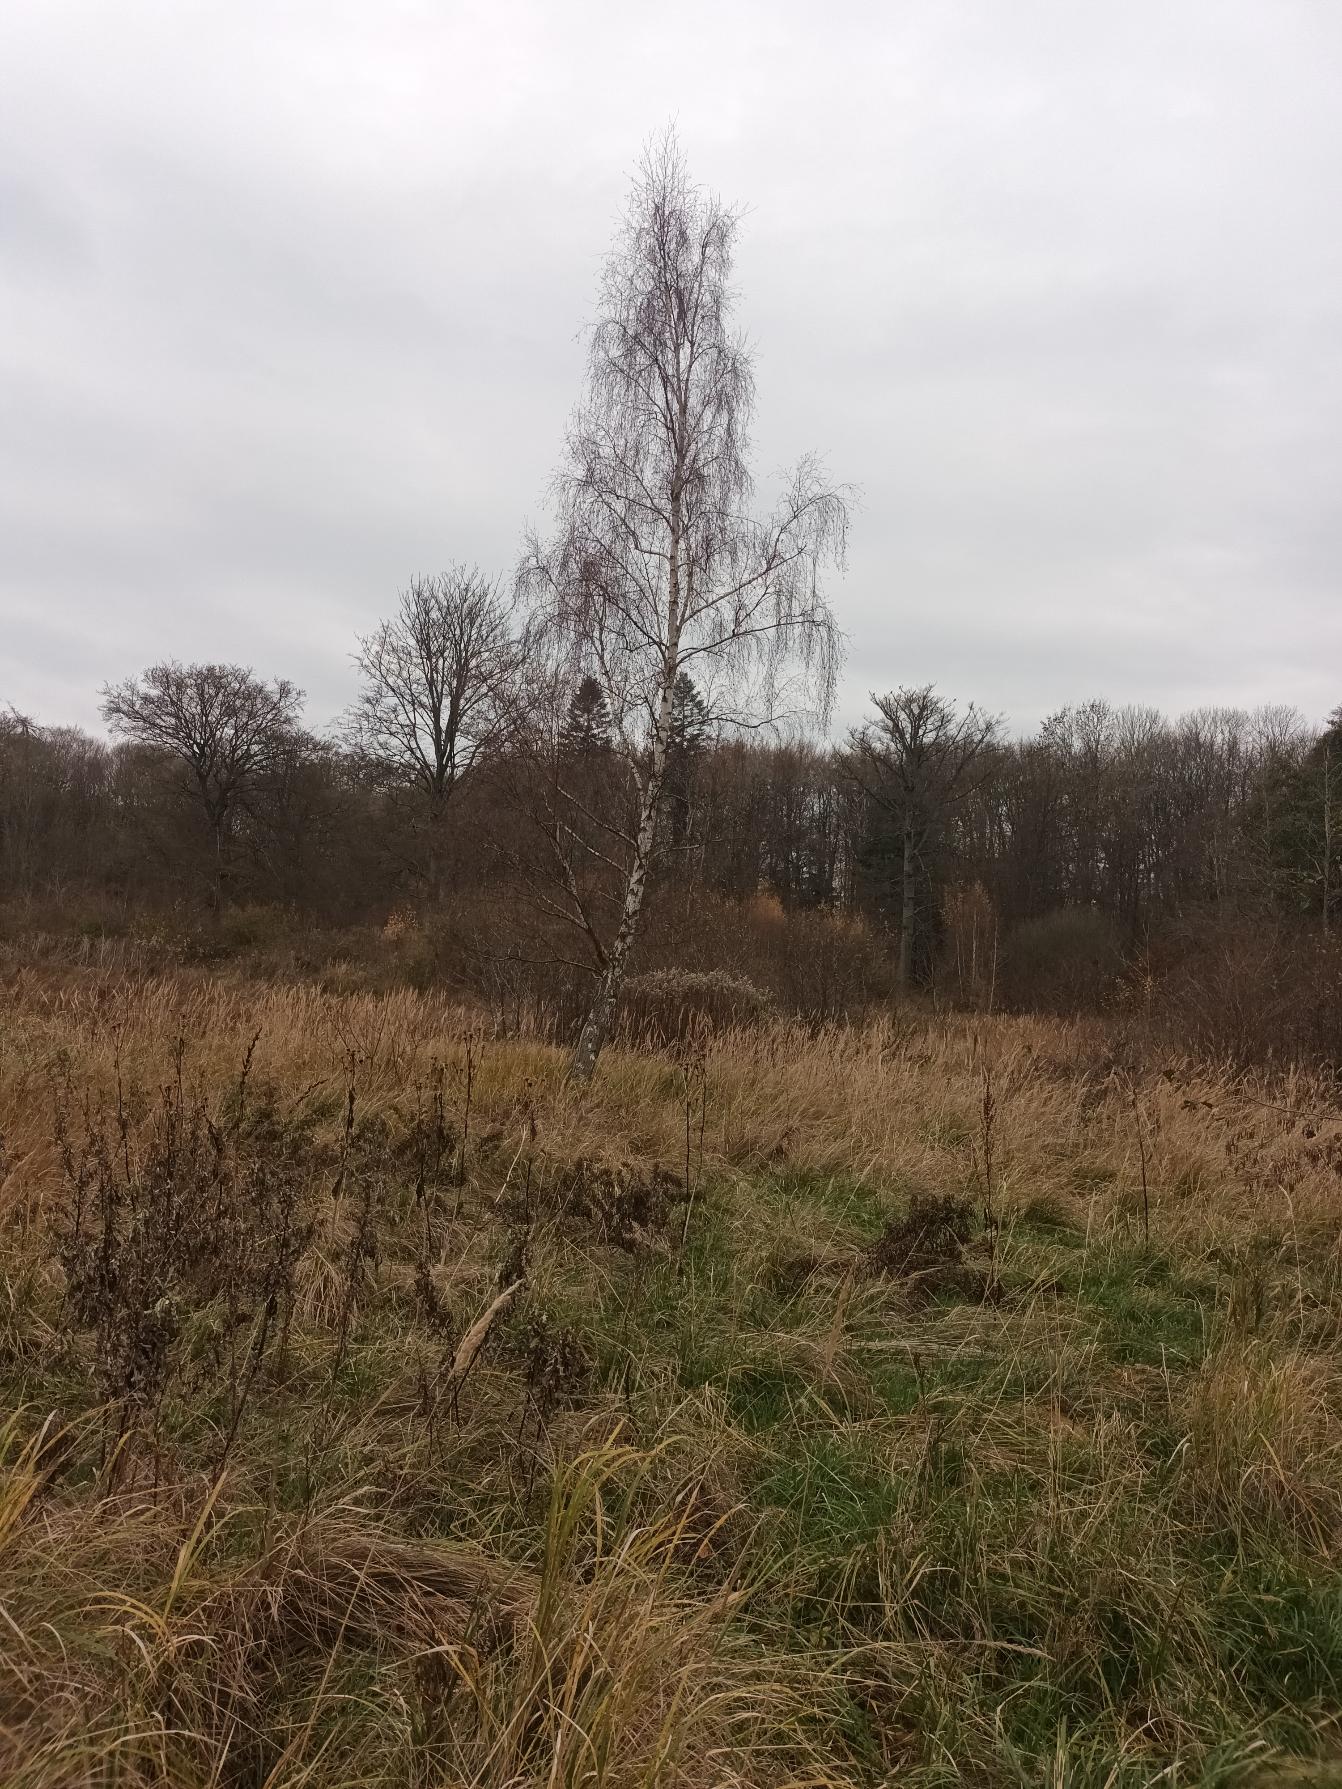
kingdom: Plantae
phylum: Tracheophyta
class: Magnoliopsida
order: Fagales
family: Betulaceae
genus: Betula
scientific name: Betula pendula
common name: Vorte-birk
